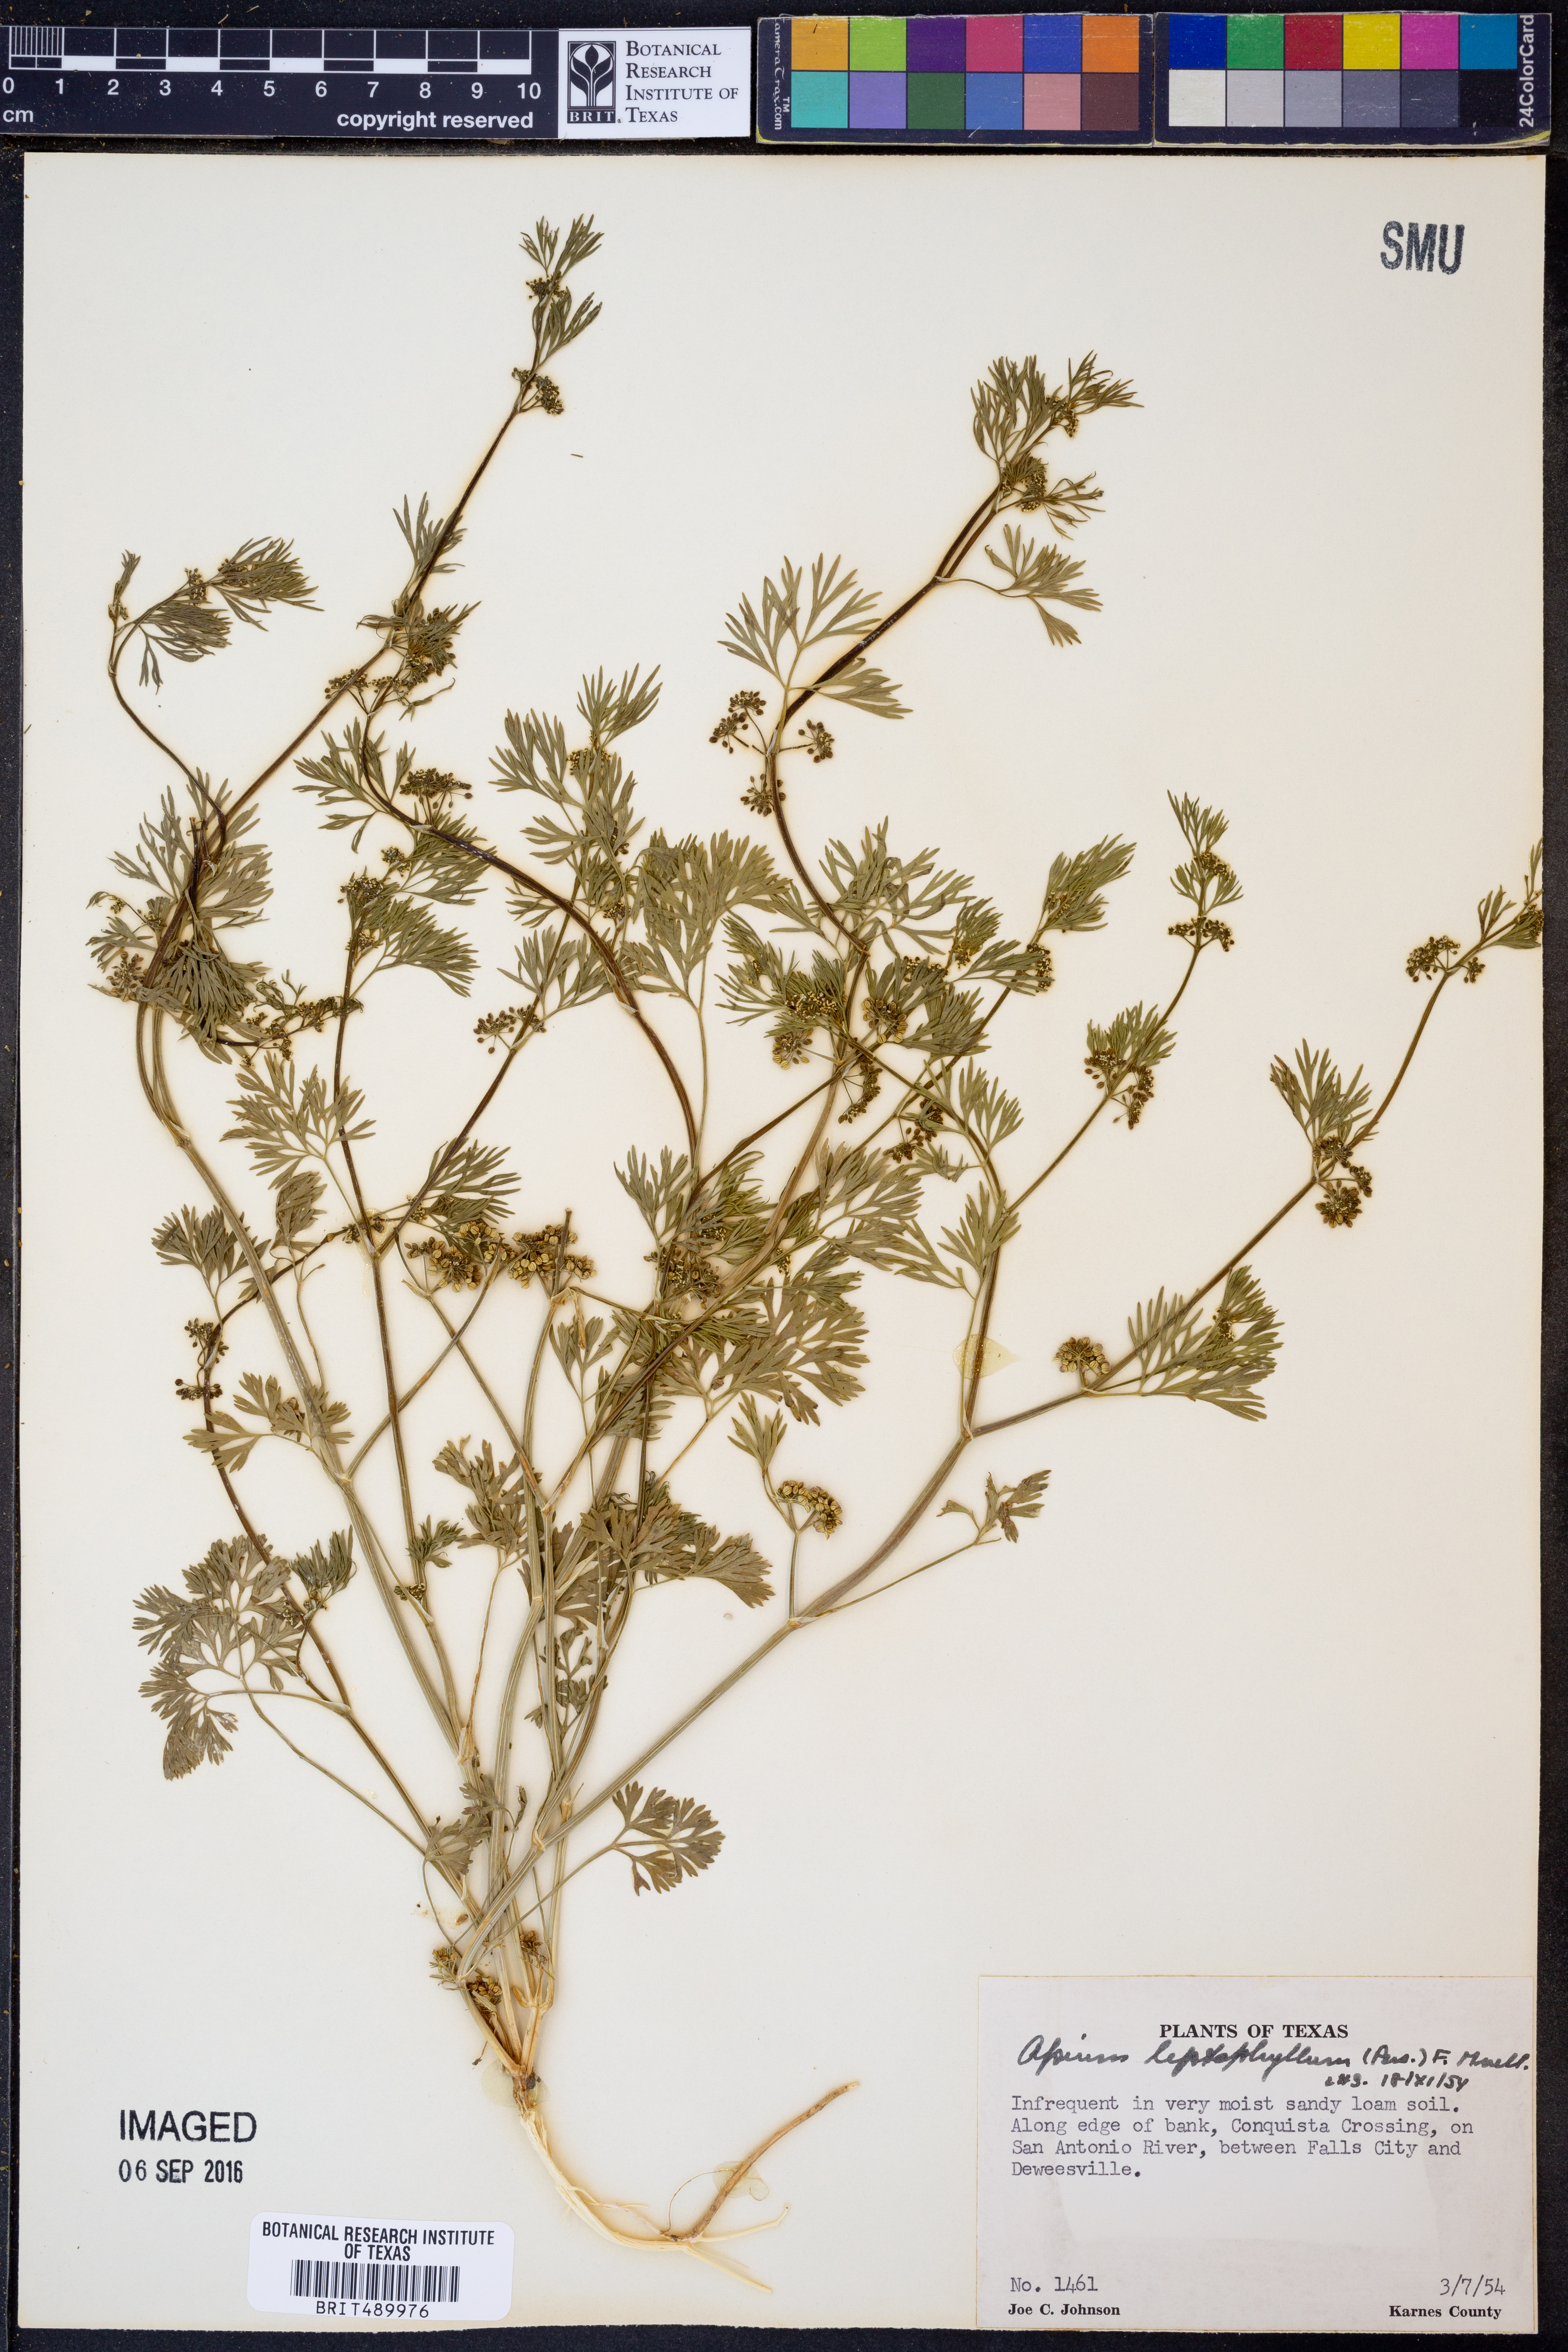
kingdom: Plantae
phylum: Tracheophyta
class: Magnoliopsida
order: Apiales
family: Apiaceae
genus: Cyclospermum
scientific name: Cyclospermum leptophyllum
